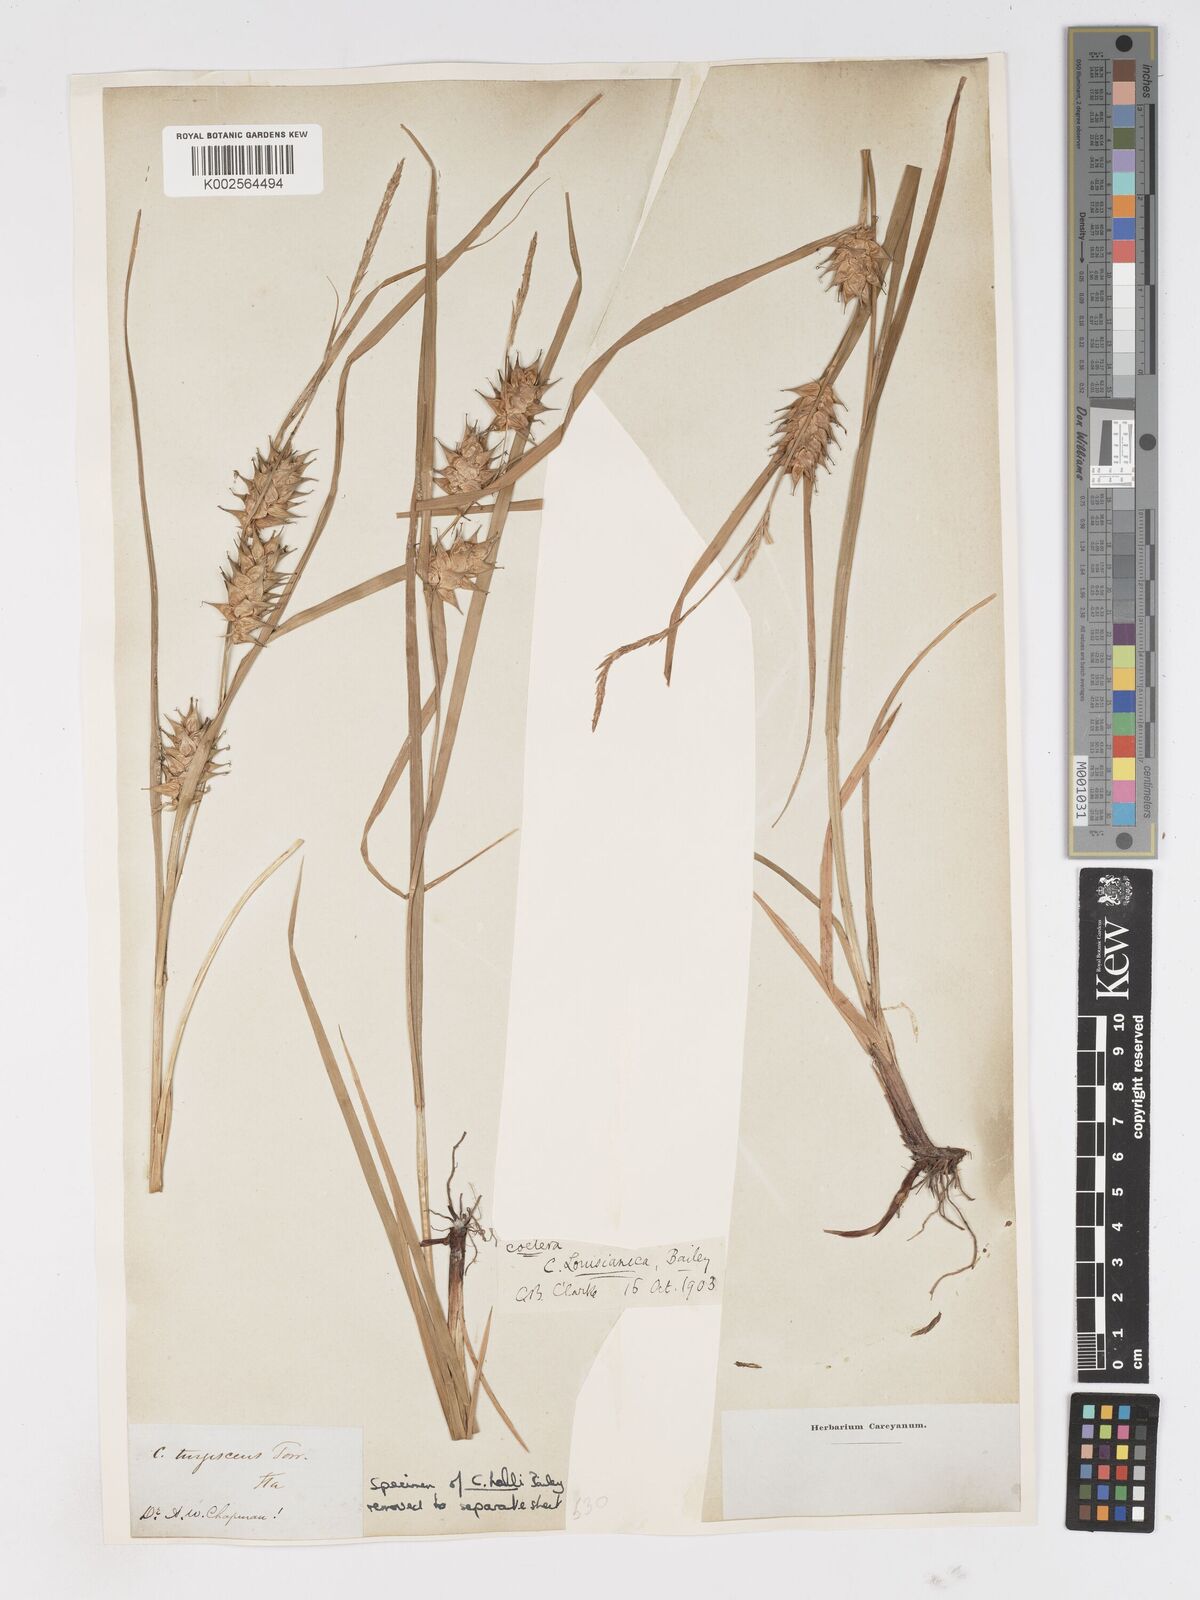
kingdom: Plantae
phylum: Tracheophyta
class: Liliopsida
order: Poales
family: Cyperaceae
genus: Carex
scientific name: Carex louisianica
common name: Louisiana sedge
